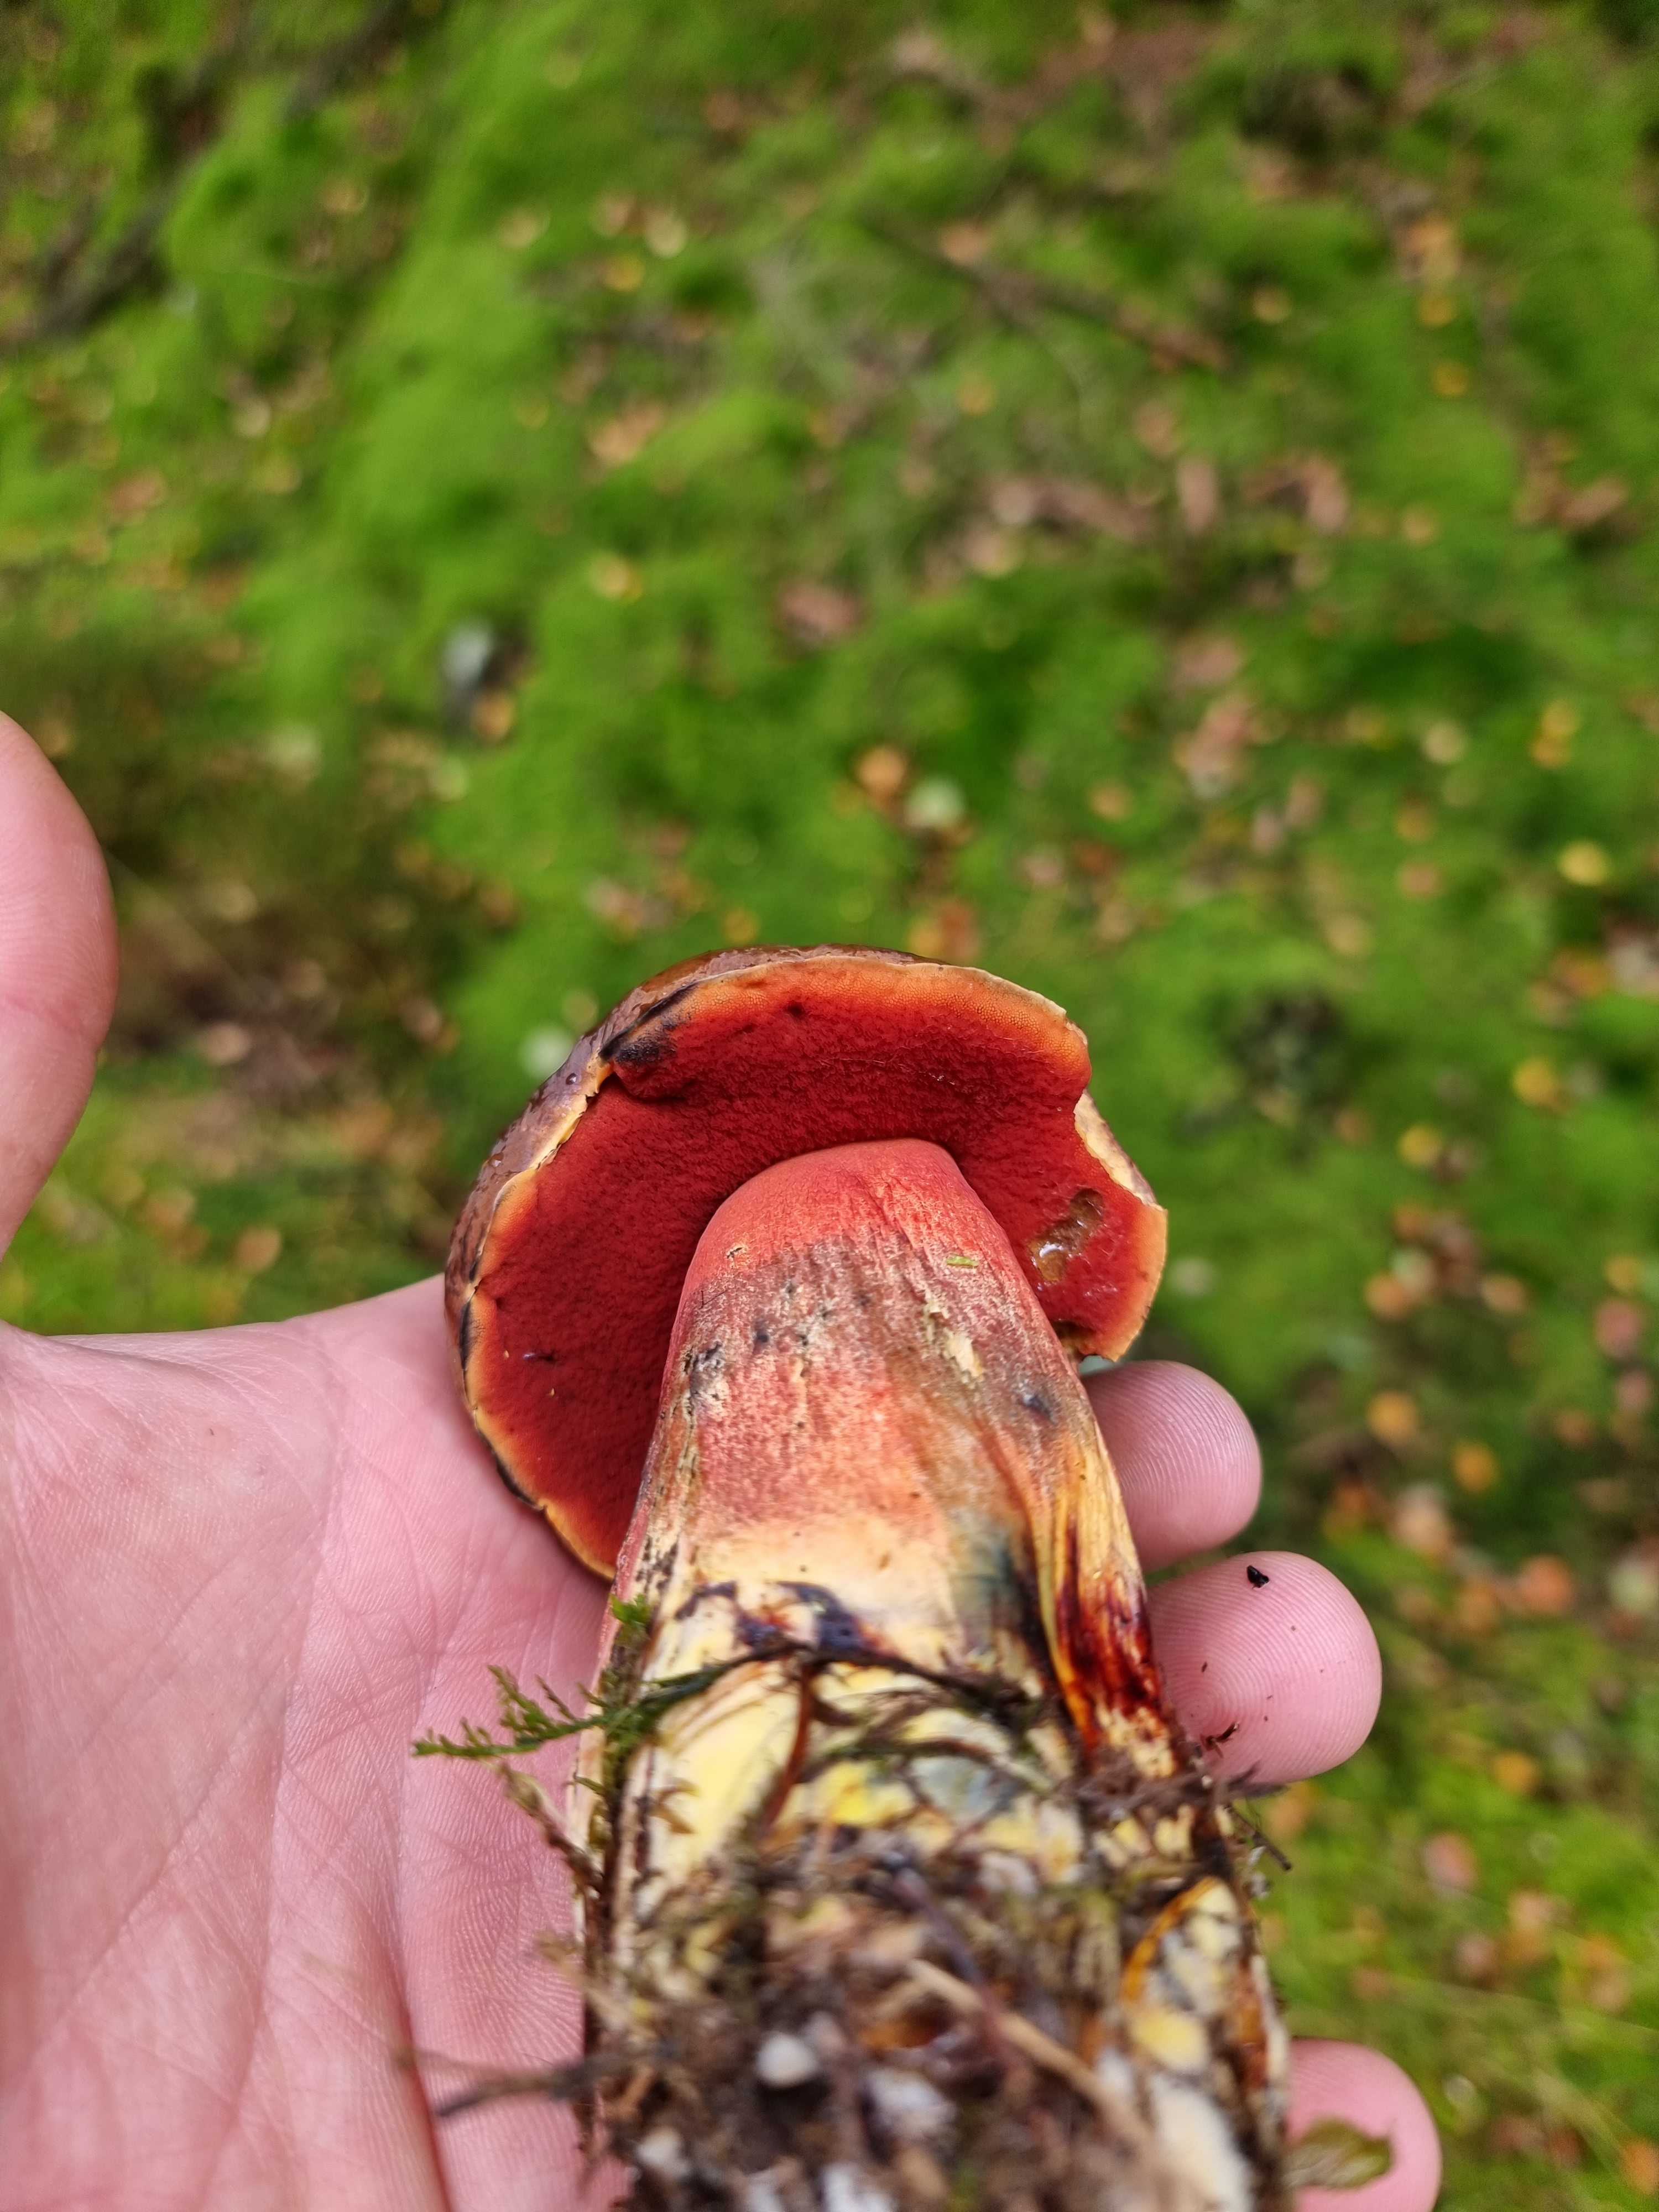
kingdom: Fungi
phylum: Basidiomycota
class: Agaricomycetes
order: Boletales
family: Boletaceae
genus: Neoboletus
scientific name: Neoboletus erythropus
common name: punktstokket indigorørhat
